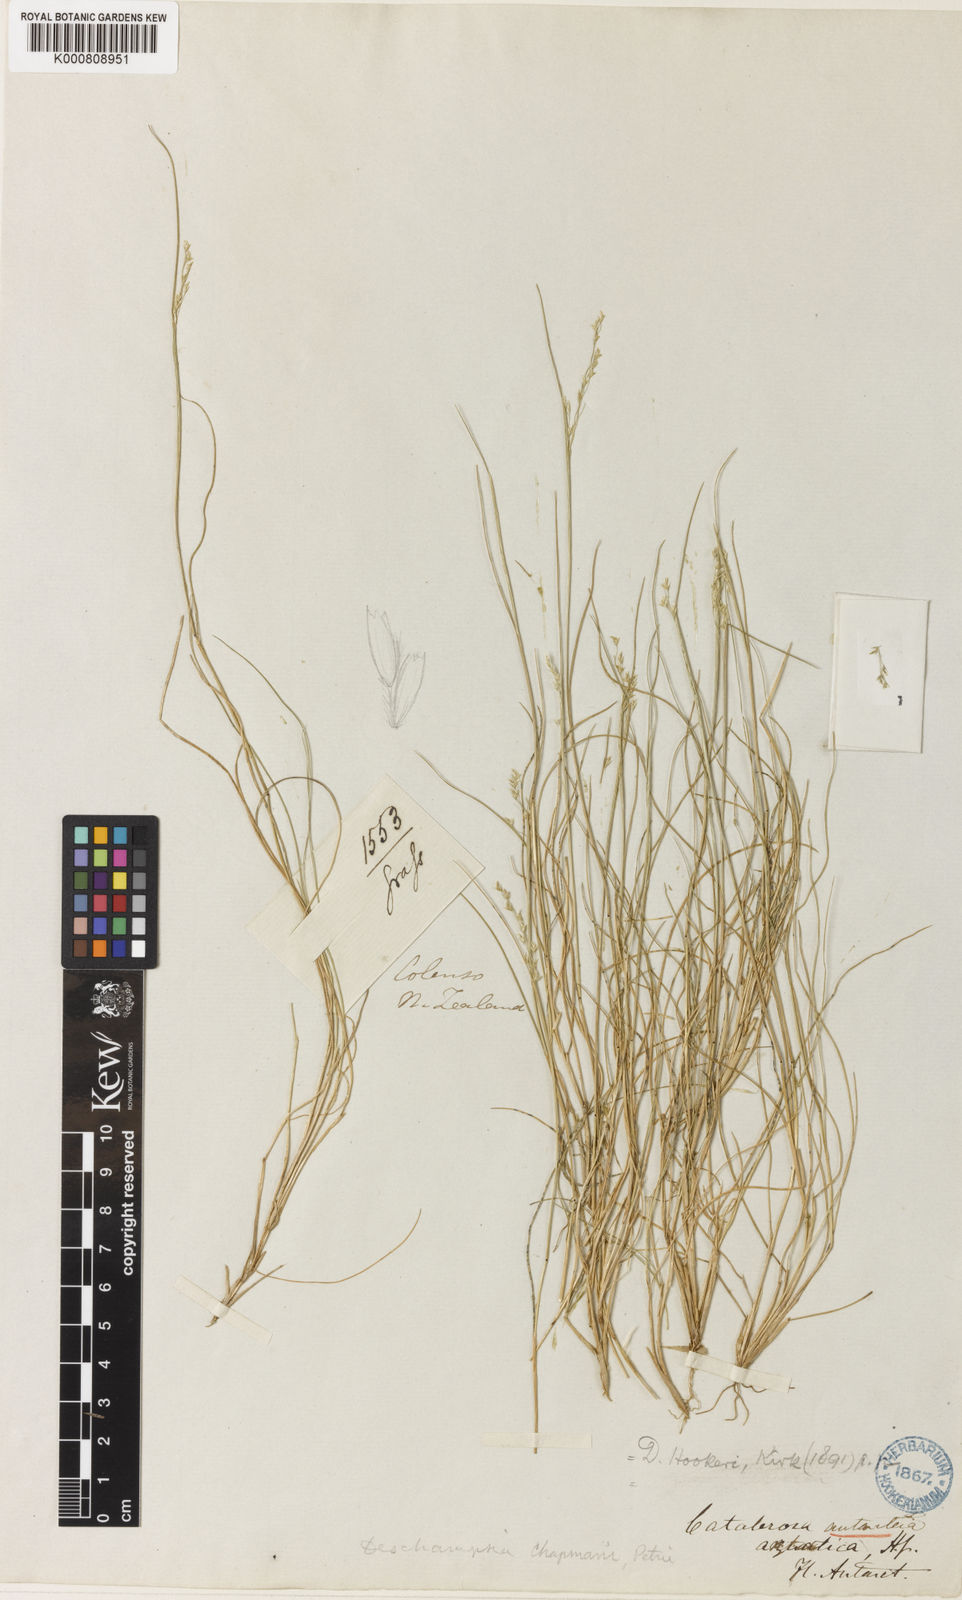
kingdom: Plantae
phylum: Tracheophyta
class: Liliopsida
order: Poales
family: Poaceae
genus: Deschampsia
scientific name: Deschampsia tenella
